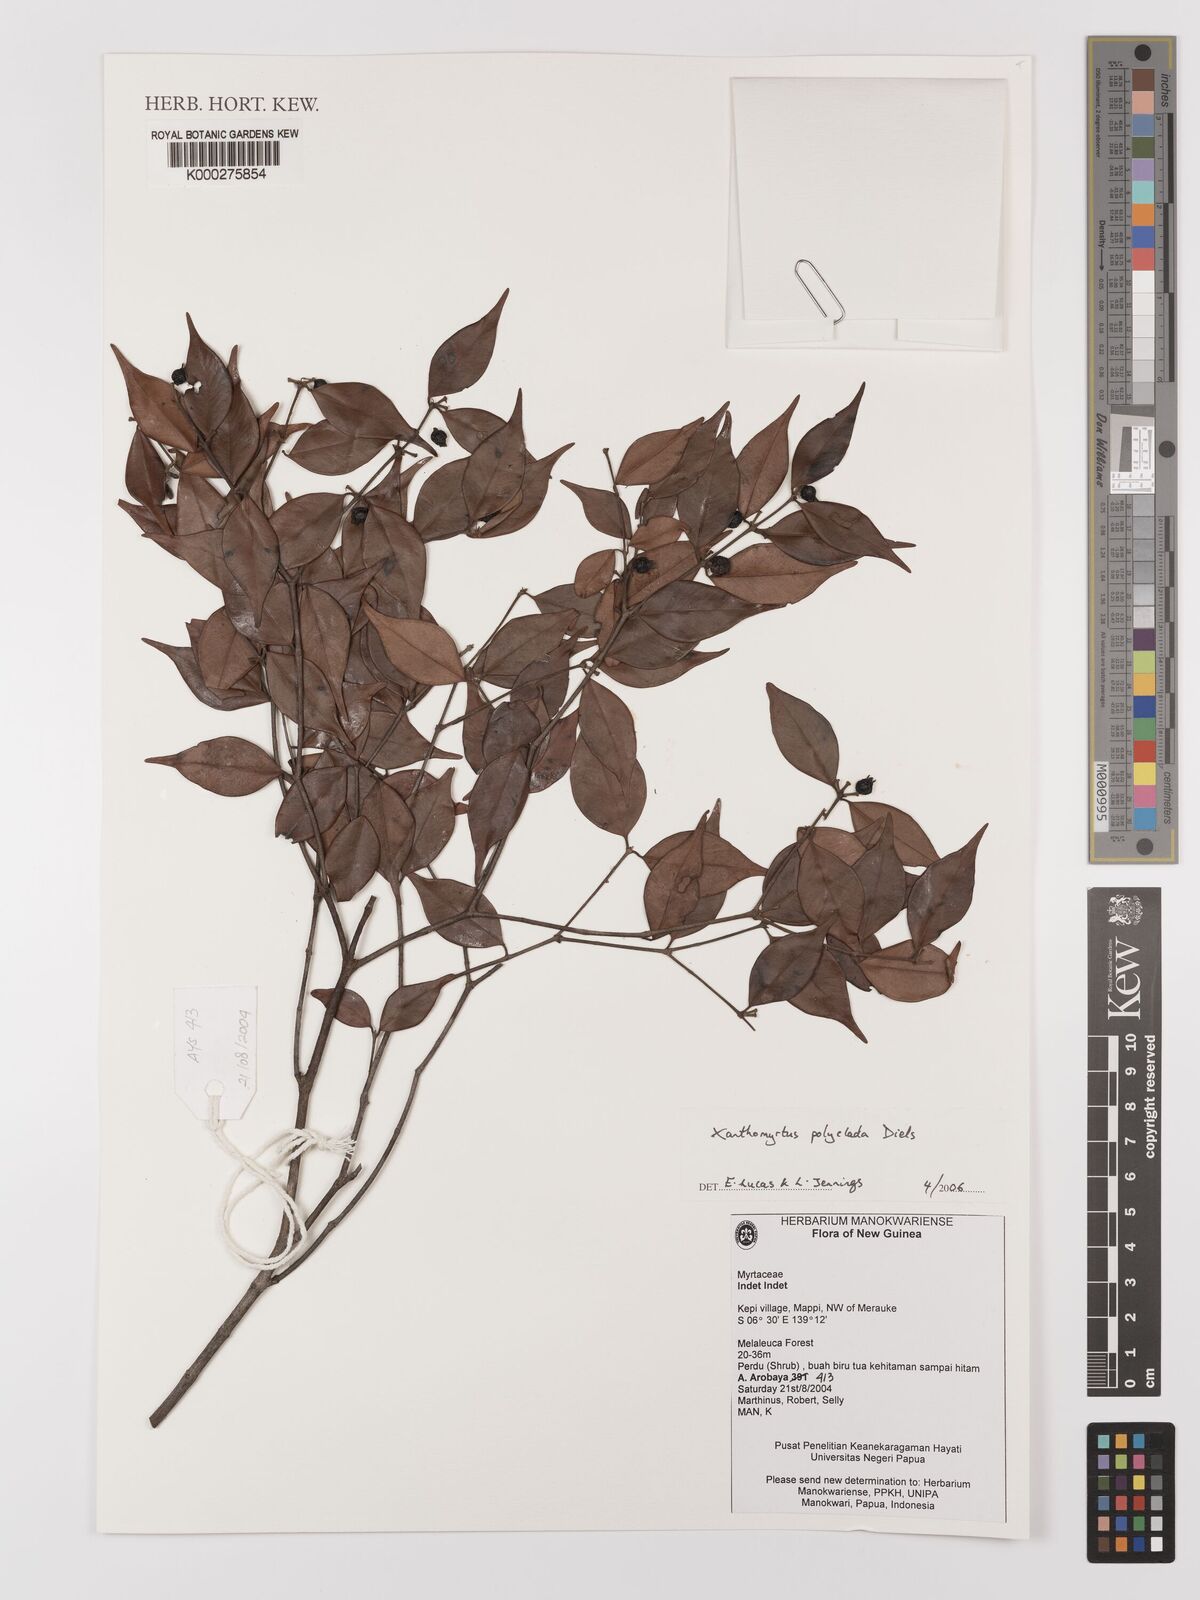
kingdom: Plantae
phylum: Tracheophyta
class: Magnoliopsida
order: Myrtales
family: Myrtaceae
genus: Xanthomyrtus
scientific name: Xanthomyrtus polyclada
